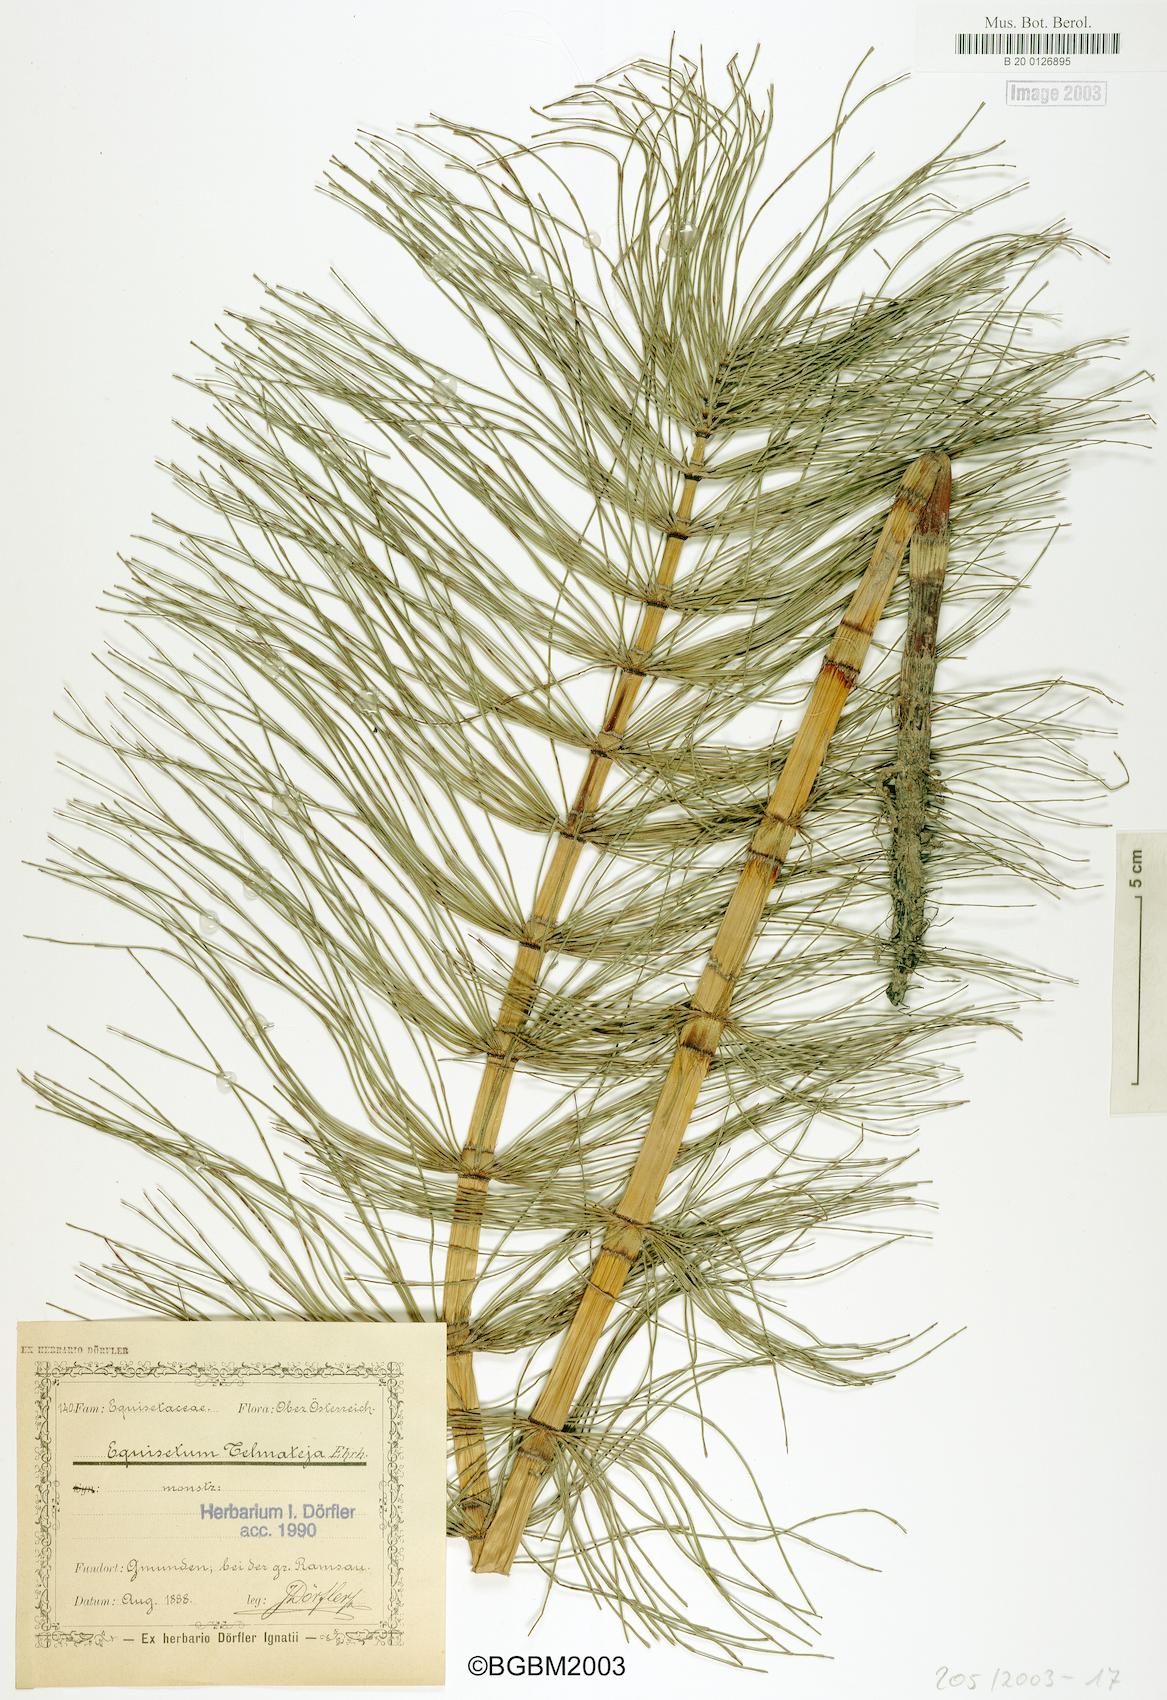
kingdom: Plantae
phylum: Tracheophyta
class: Polypodiopsida
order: Equisetales
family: Equisetaceae
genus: Equisetum
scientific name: Equisetum telmateia
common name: Great horsetail
